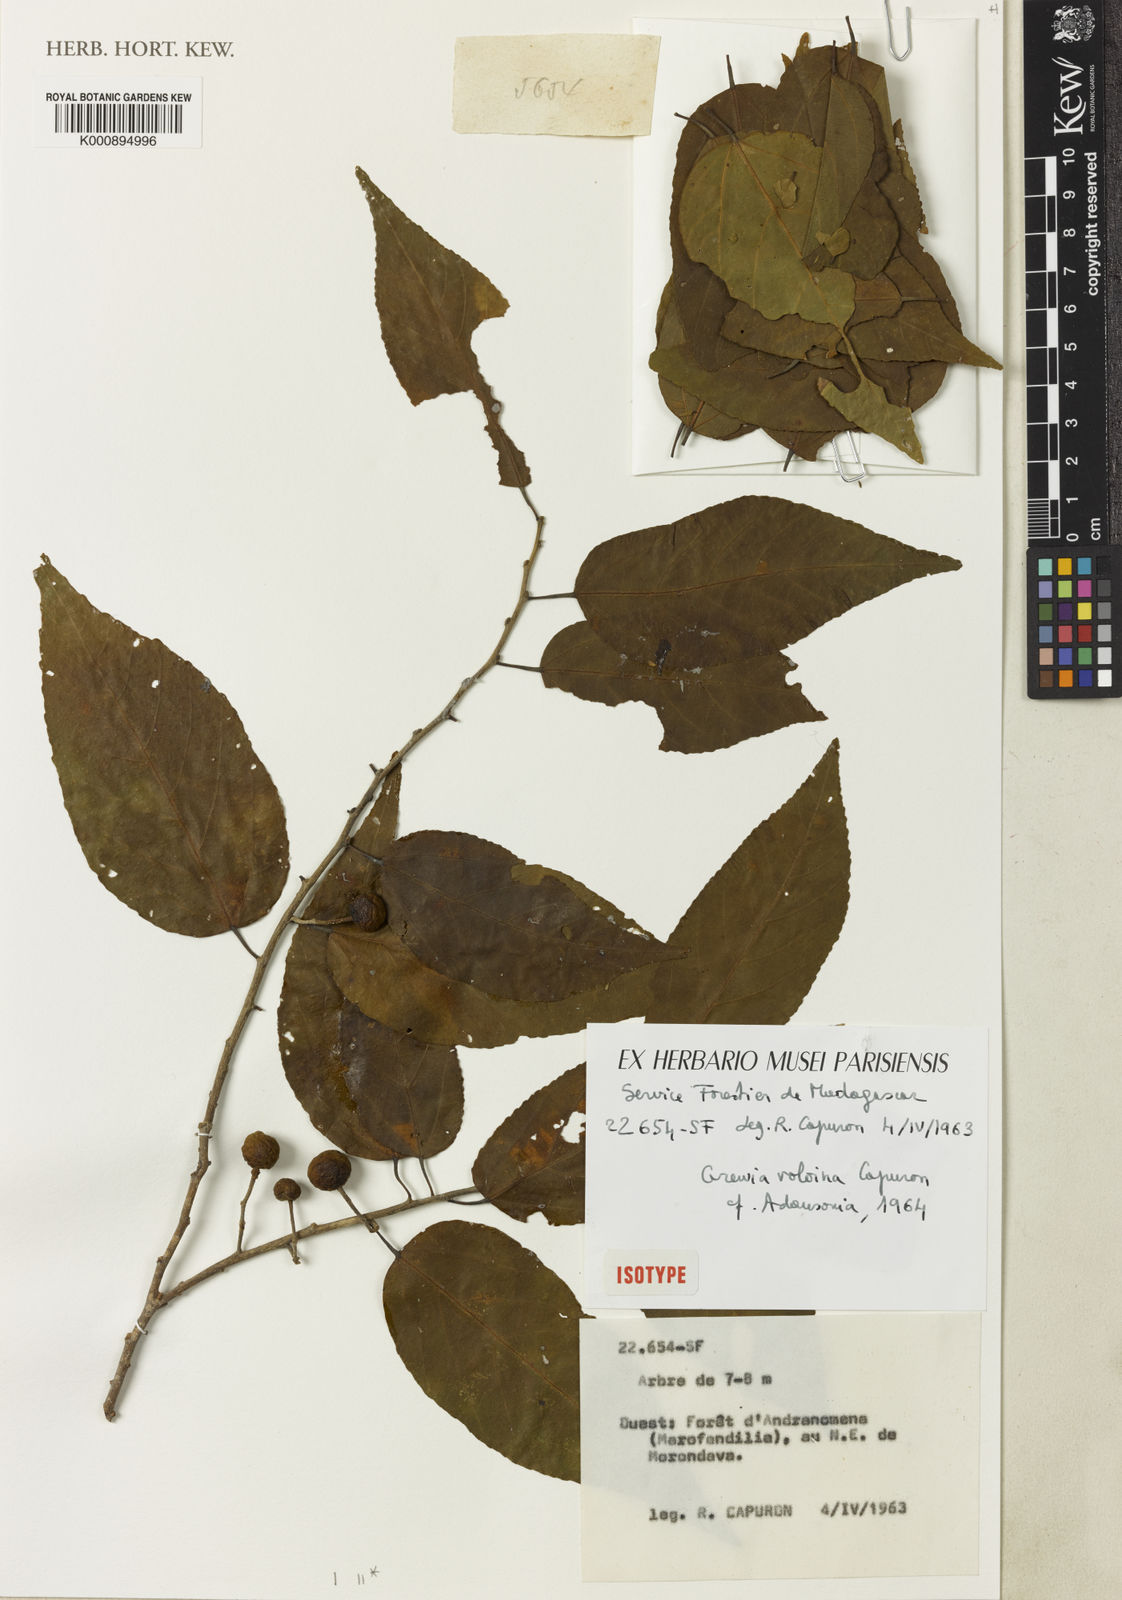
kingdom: Plantae
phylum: Tracheophyta
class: Magnoliopsida
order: Malvales
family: Malvaceae
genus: Grewia
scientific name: Grewia voloina
